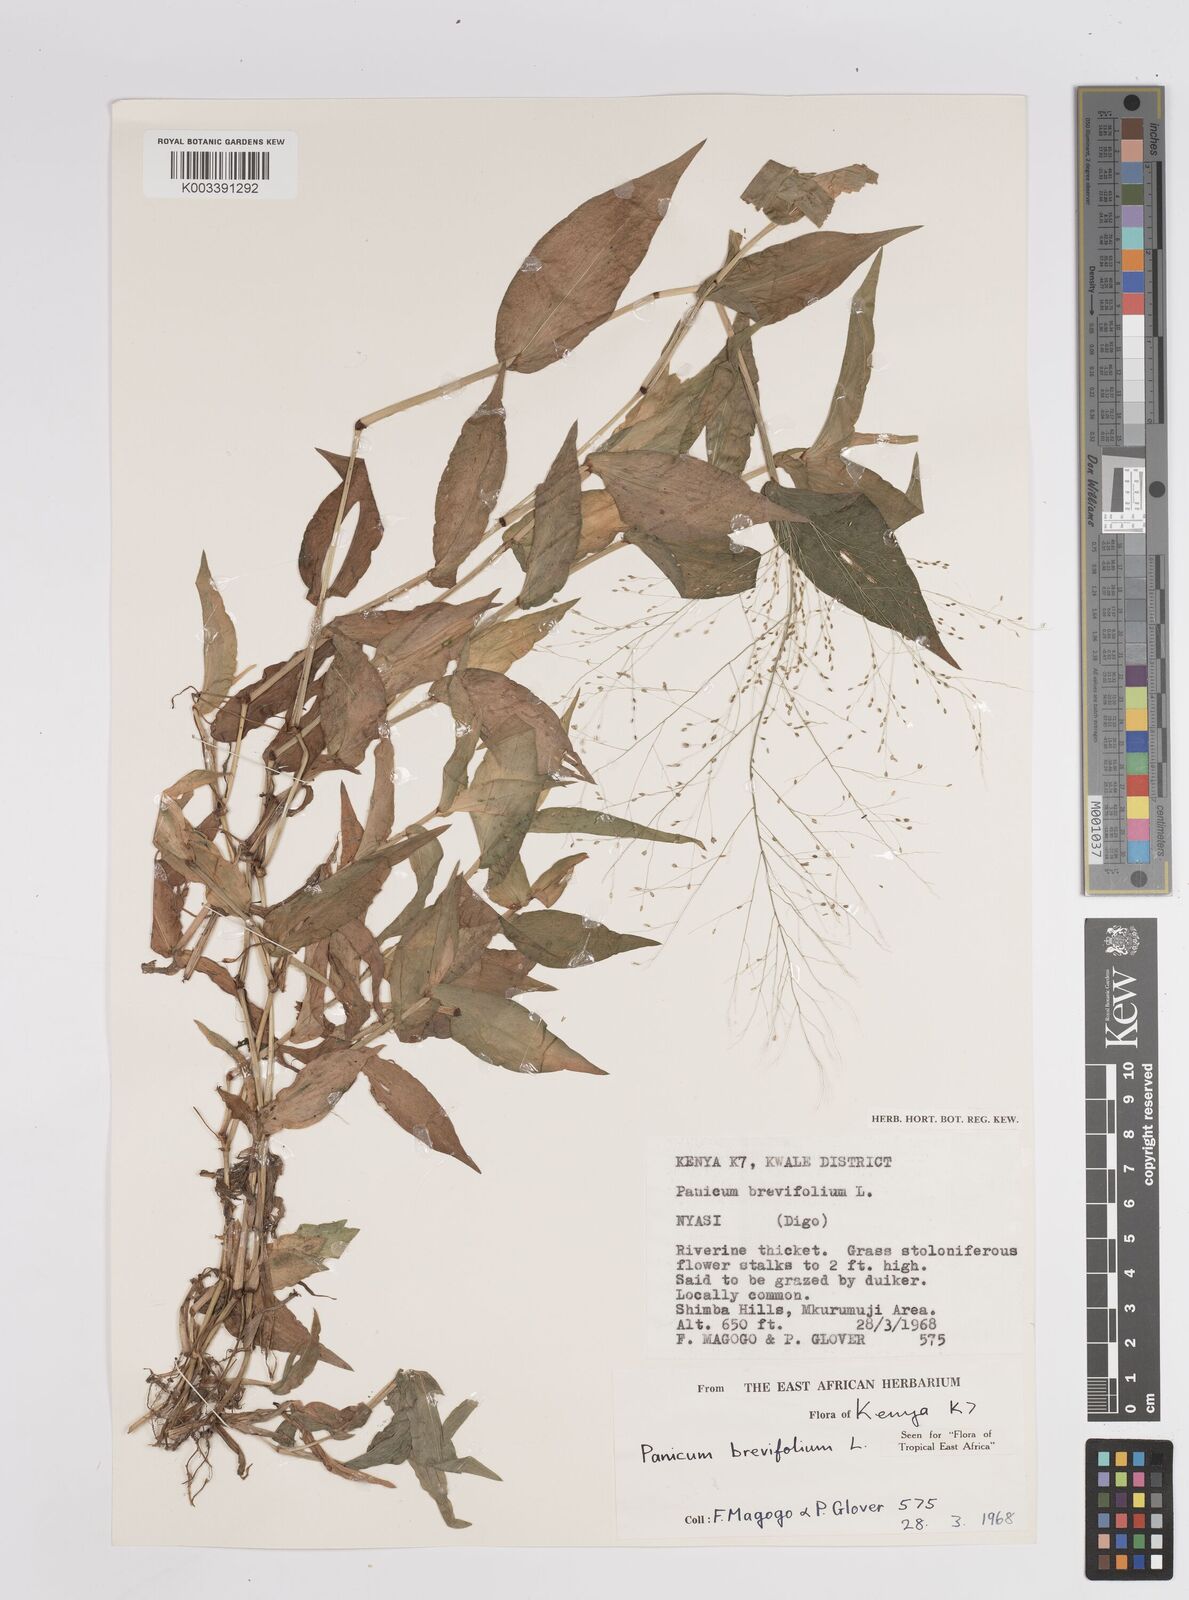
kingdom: Plantae
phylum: Tracheophyta
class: Liliopsida
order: Poales
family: Poaceae
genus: Panicum
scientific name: Panicum brevifolium
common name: Shortleaf panic grass
